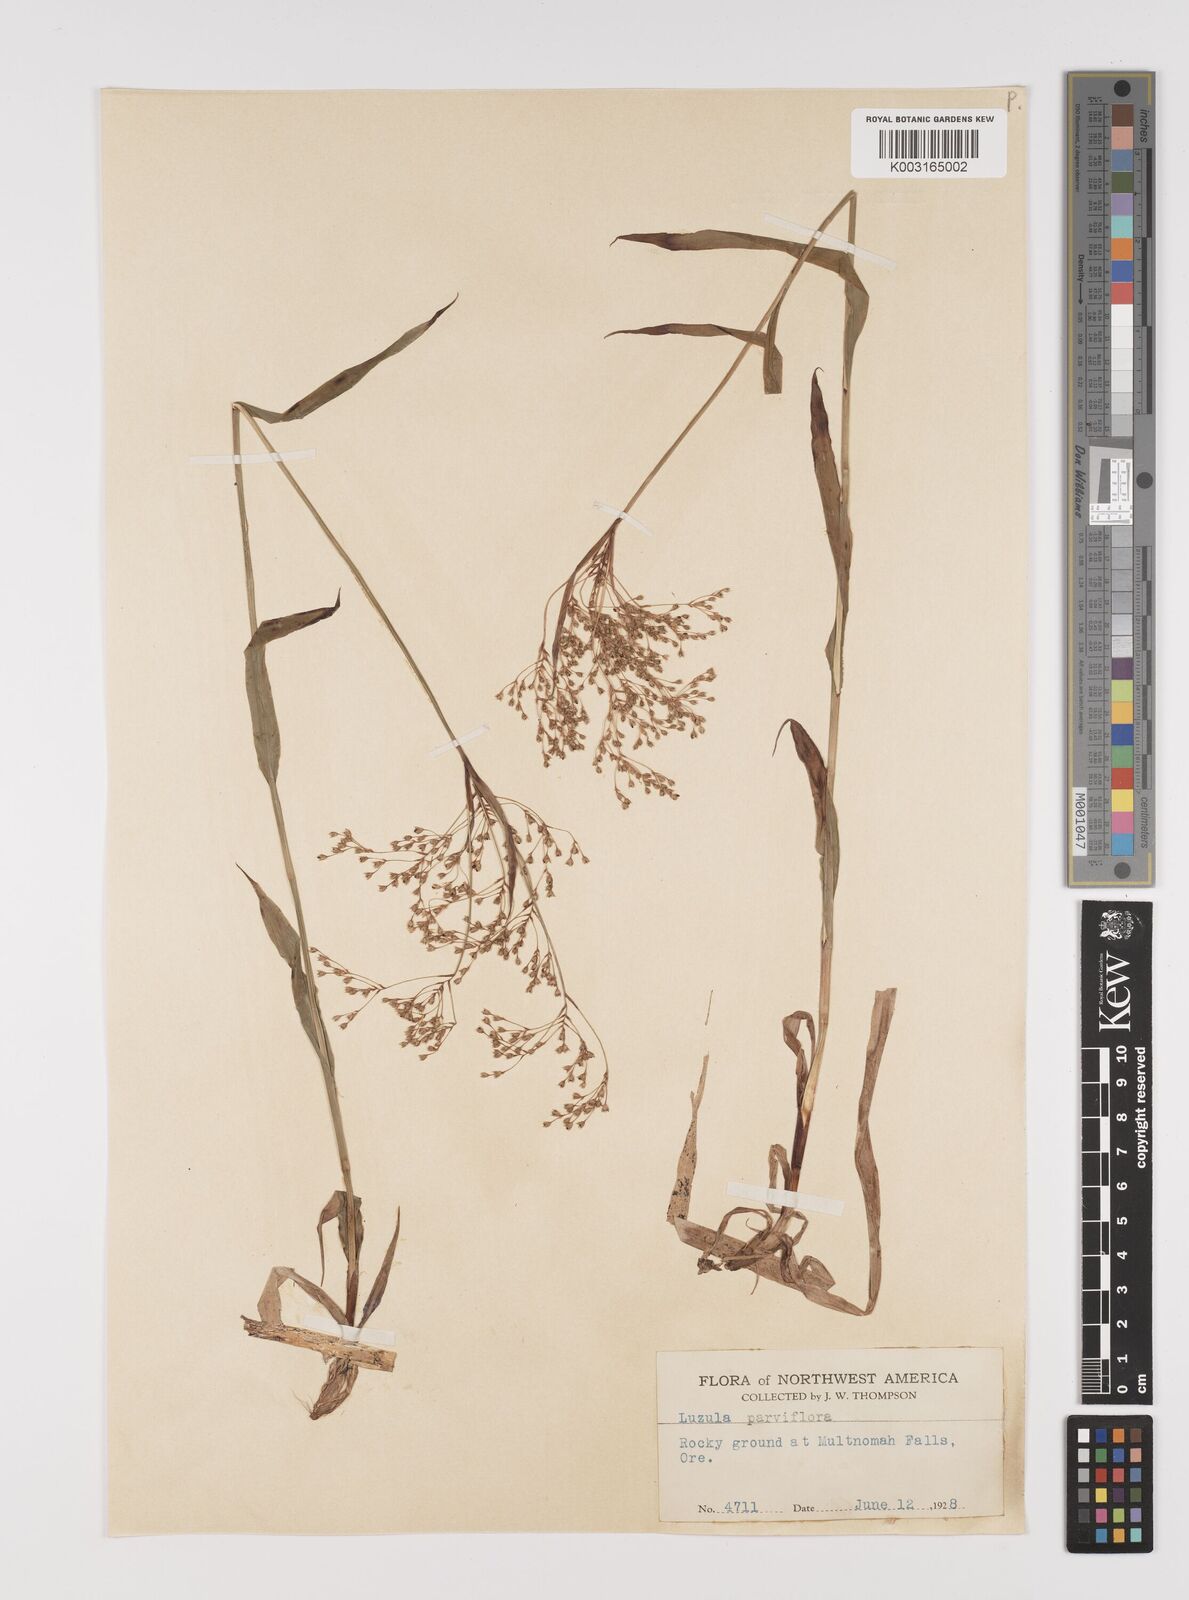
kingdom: Plantae
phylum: Tracheophyta
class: Liliopsida
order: Poales
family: Juncaceae
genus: Luzula
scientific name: Luzula parviflora
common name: Millet woodrush
